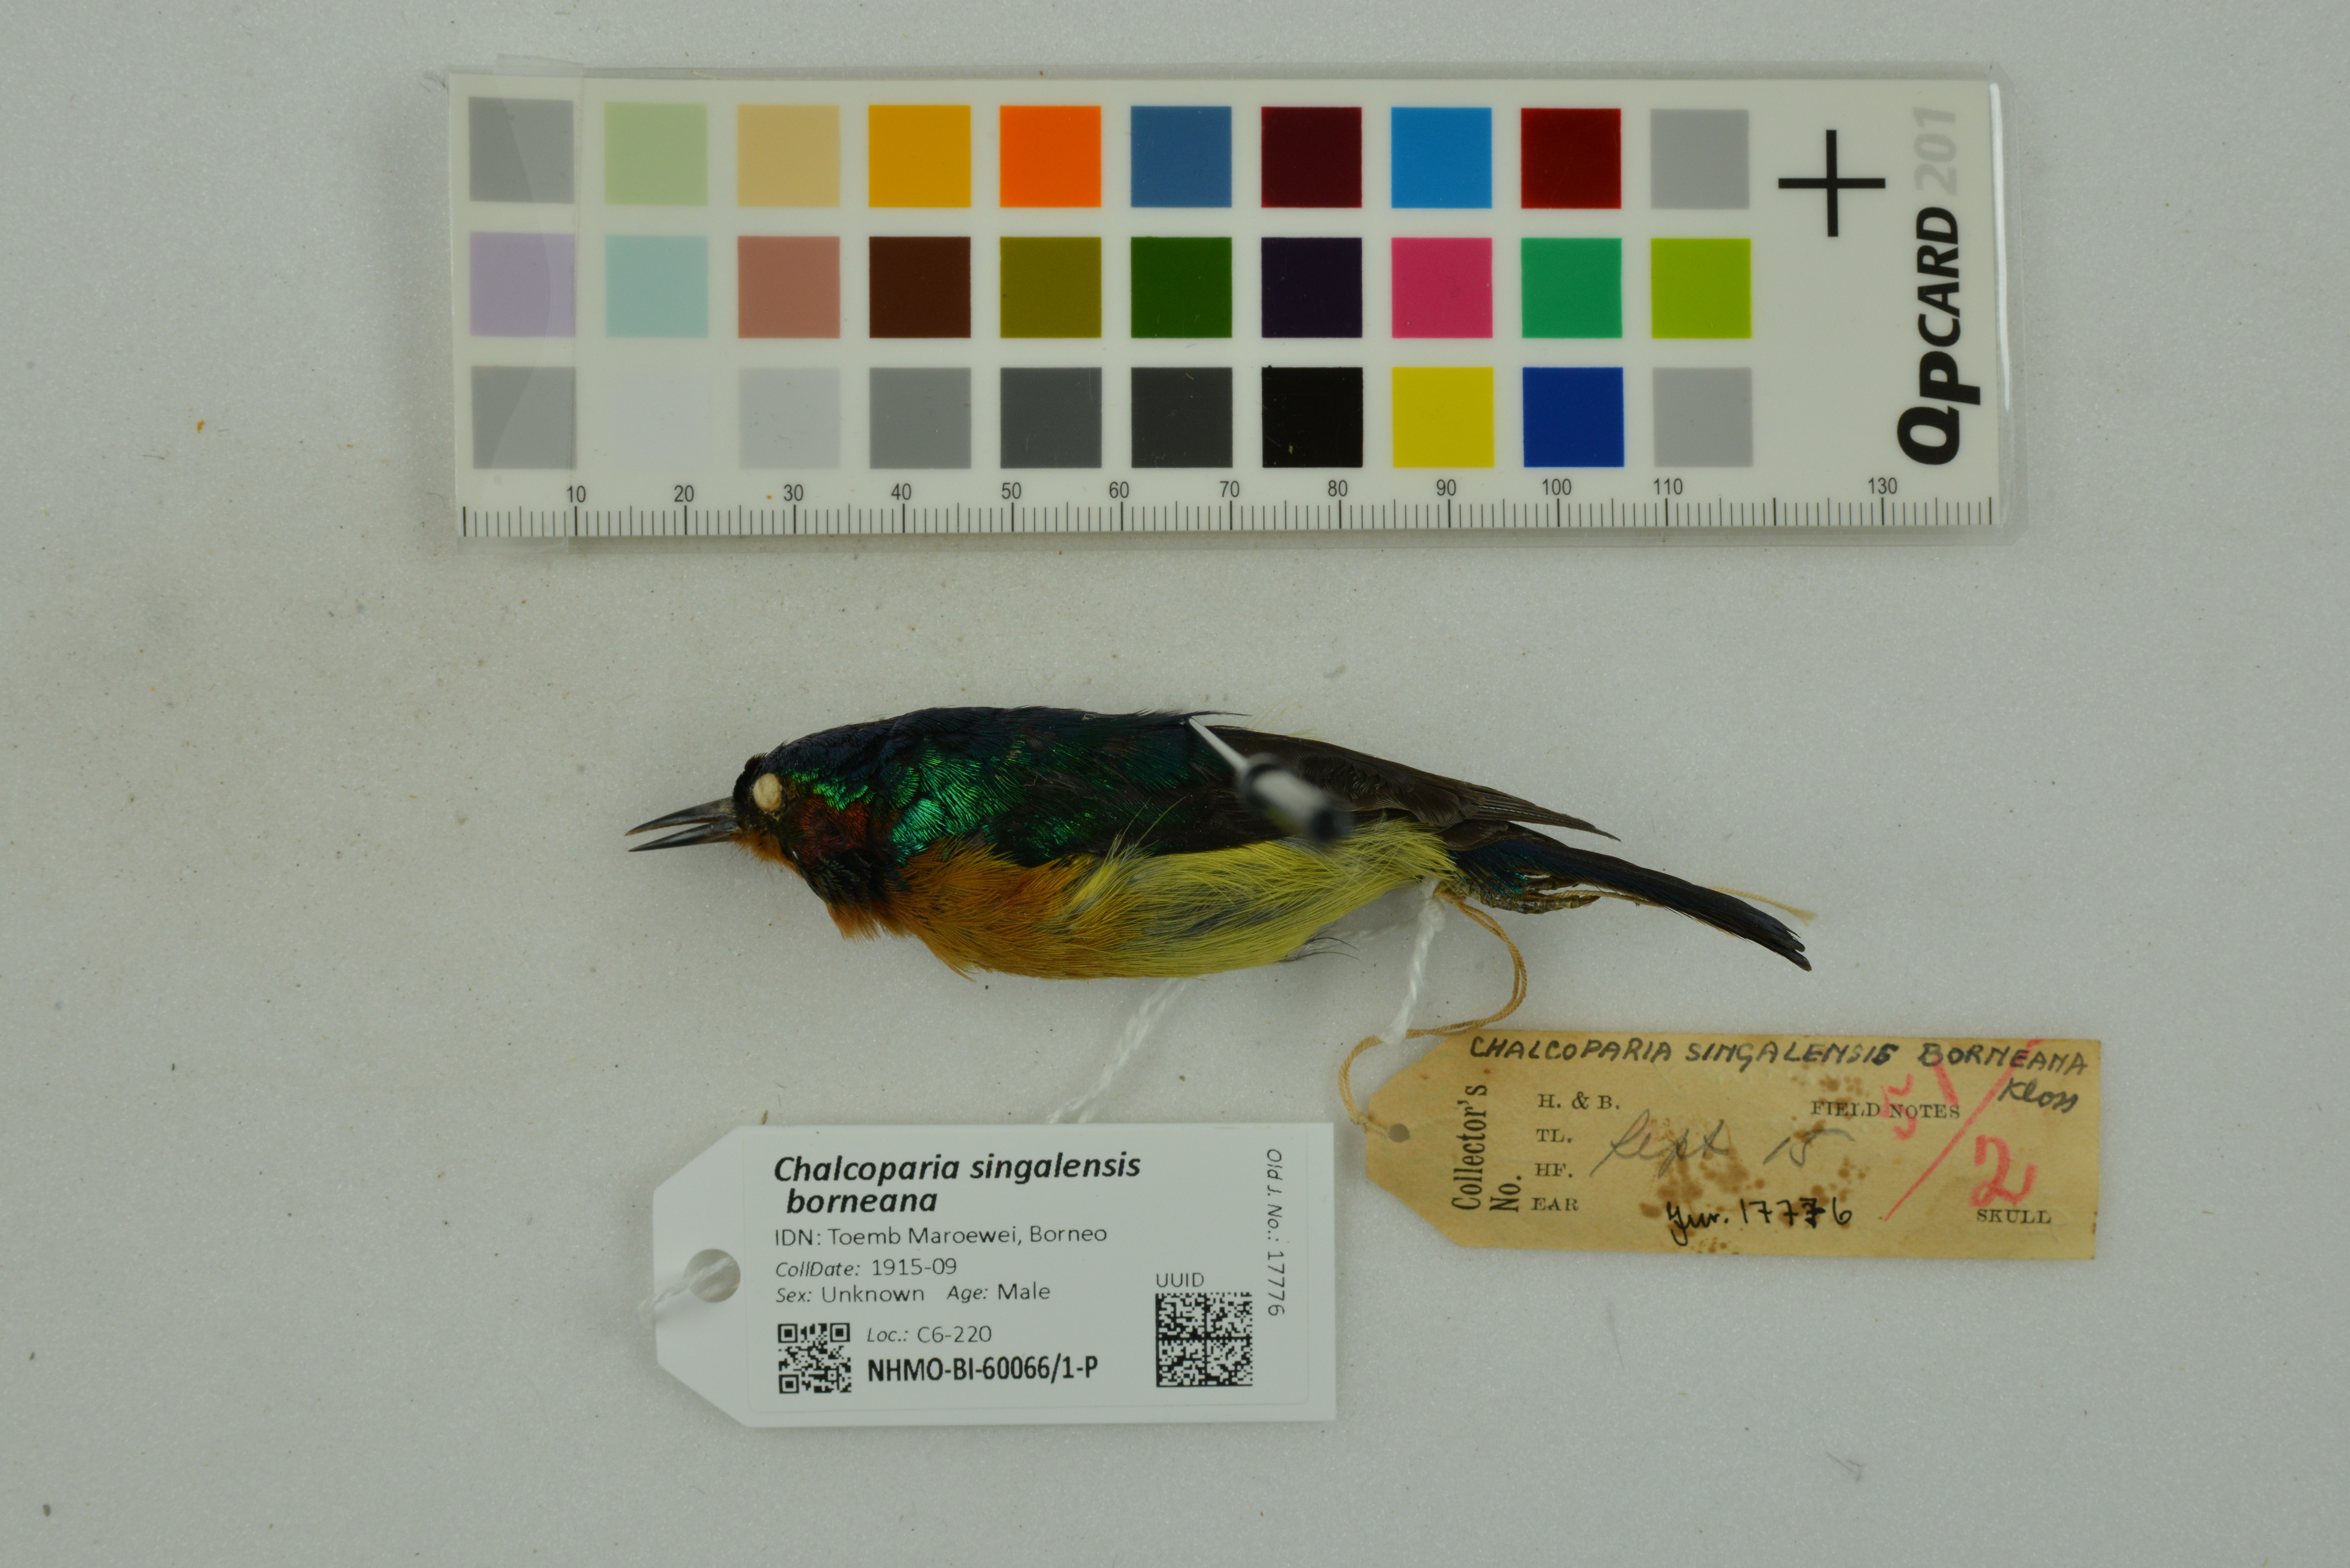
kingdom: Animalia
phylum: Chordata
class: Aves
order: Passeriformes
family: Nectariniidae
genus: Chalcoparia
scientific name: Chalcoparia singalensis
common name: Ruby-cheeked sunbird
